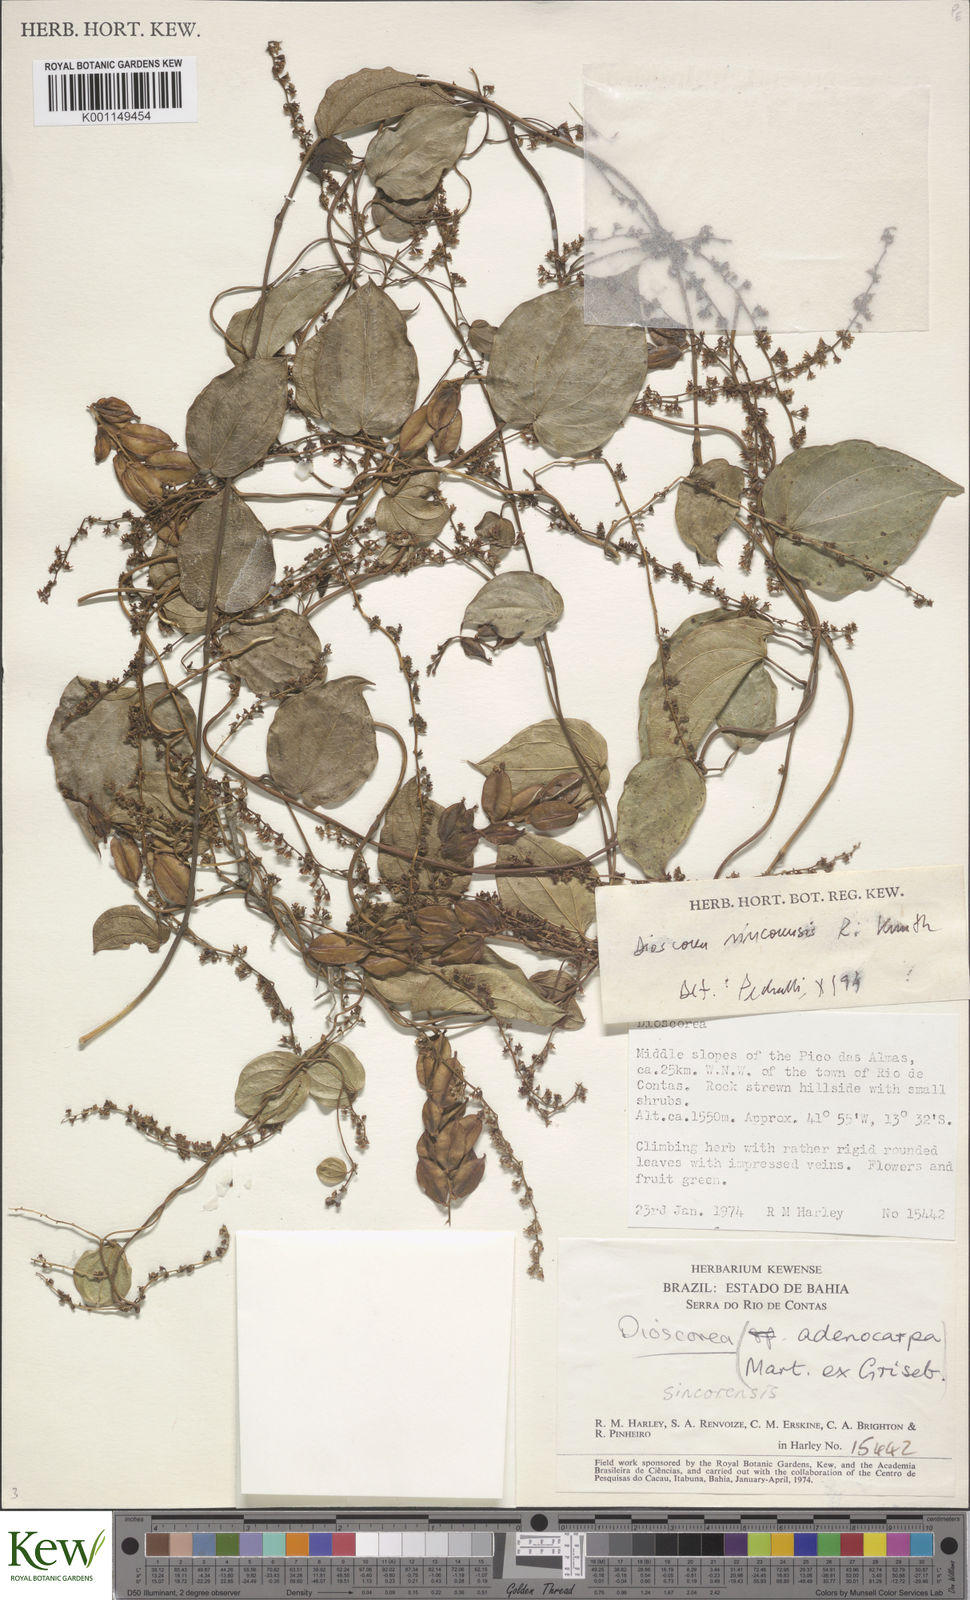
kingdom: Plantae
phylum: Tracheophyta
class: Liliopsida
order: Dioscoreales
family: Dioscoreaceae
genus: Dioscorea
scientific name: Dioscorea sincorensis
